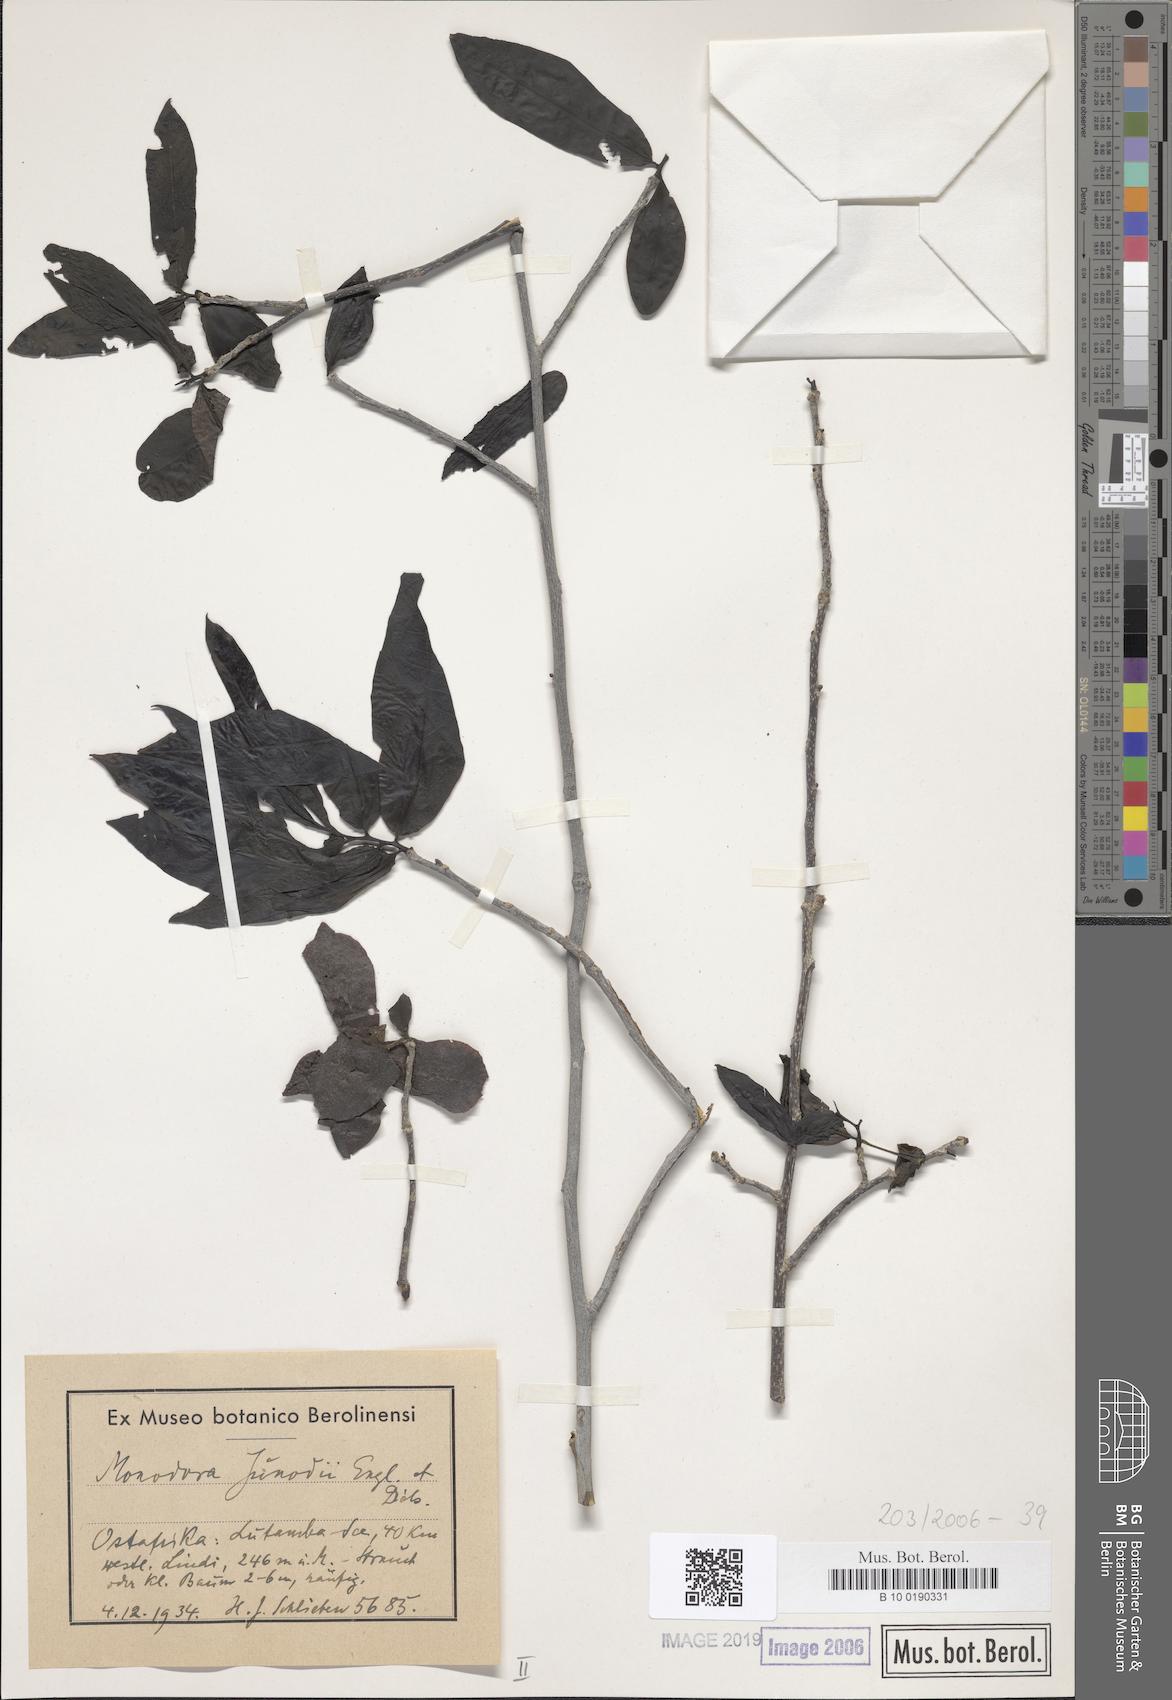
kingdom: Plantae
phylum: Tracheophyta
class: Magnoliopsida
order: Magnoliales
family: Annonaceae
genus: Monodora
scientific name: Monodora junodii
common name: Green-apple
